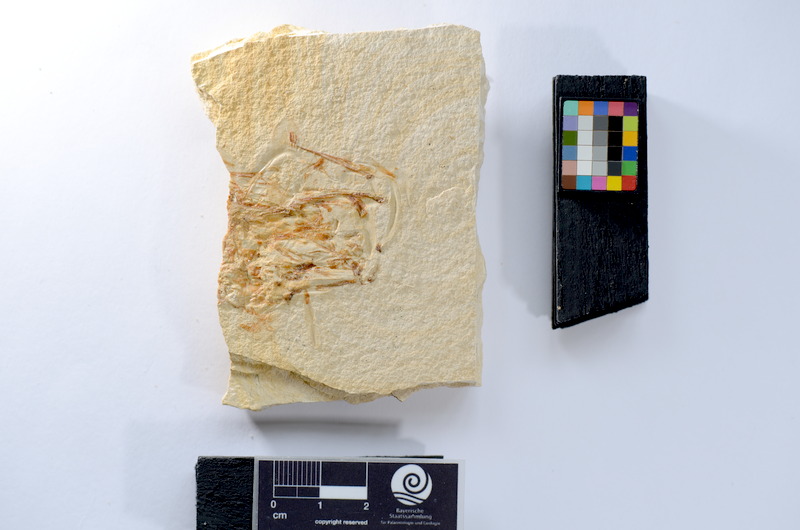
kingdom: Animalia
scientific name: Animalia
